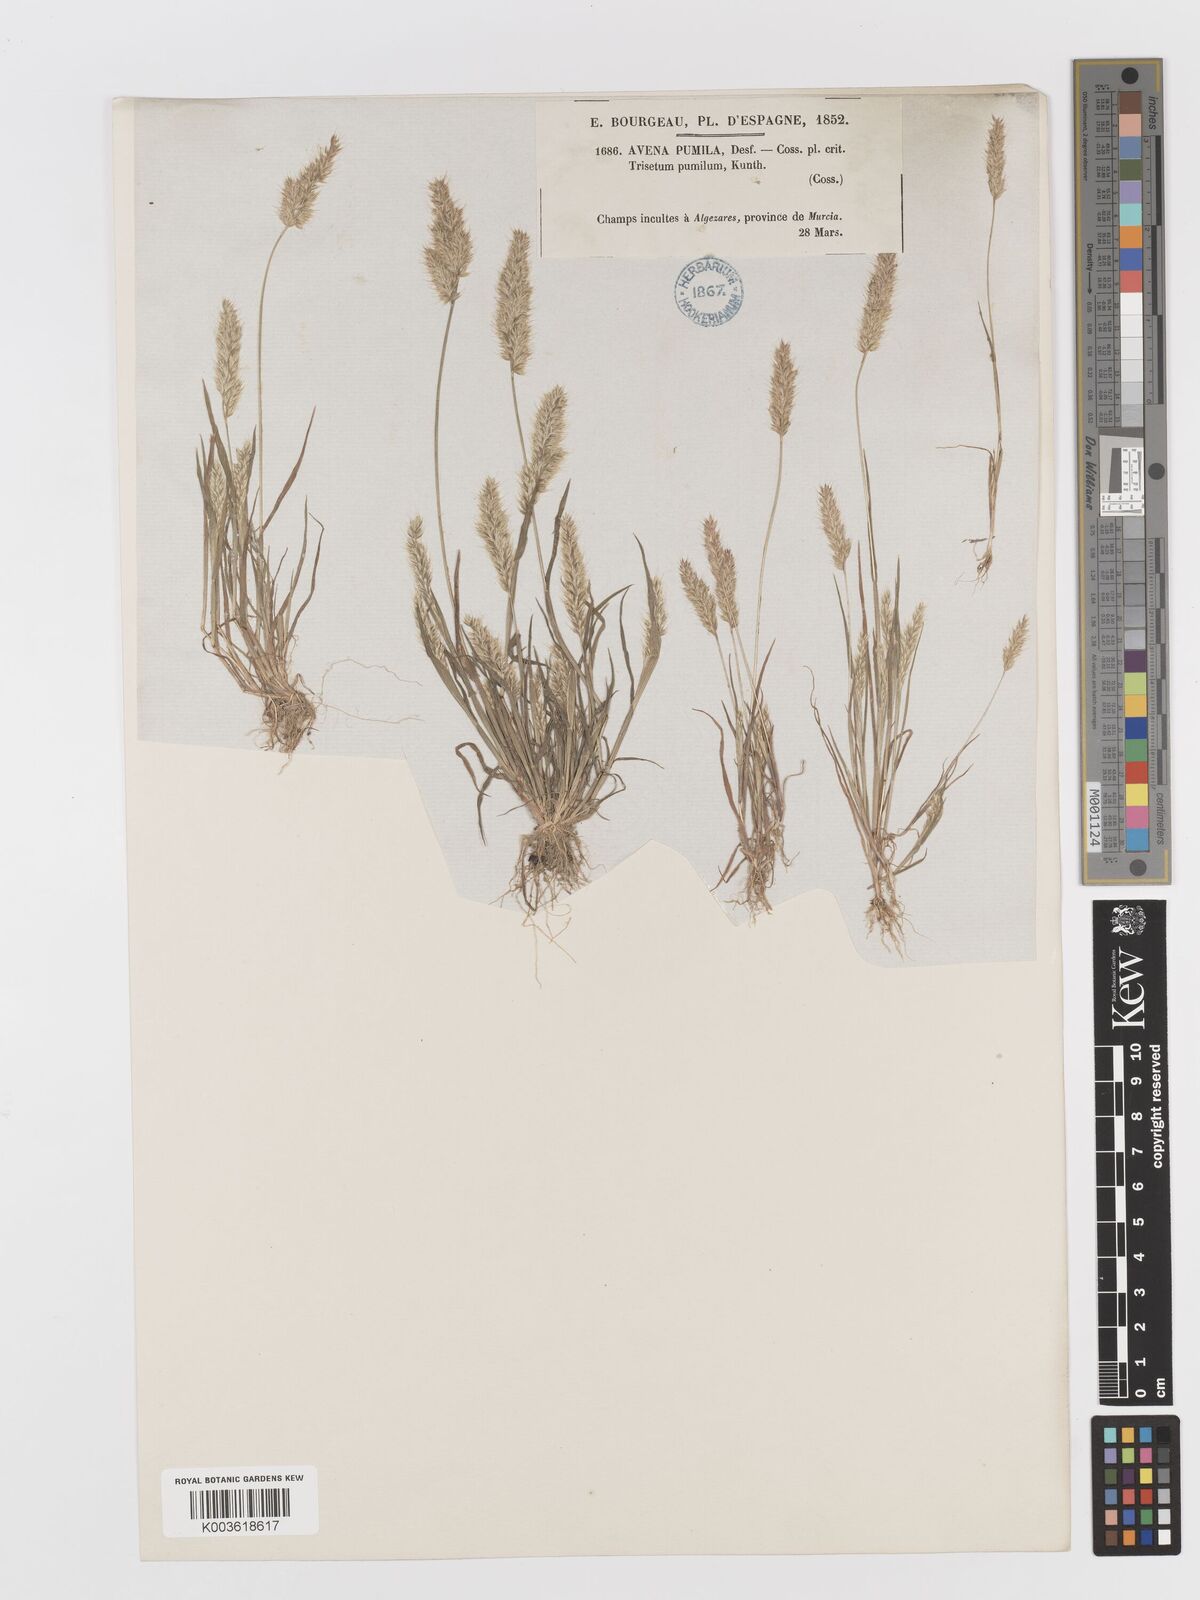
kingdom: Plantae
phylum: Tracheophyta
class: Liliopsida
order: Poales
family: Poaceae
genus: Rostraria
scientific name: Rostraria pumila
